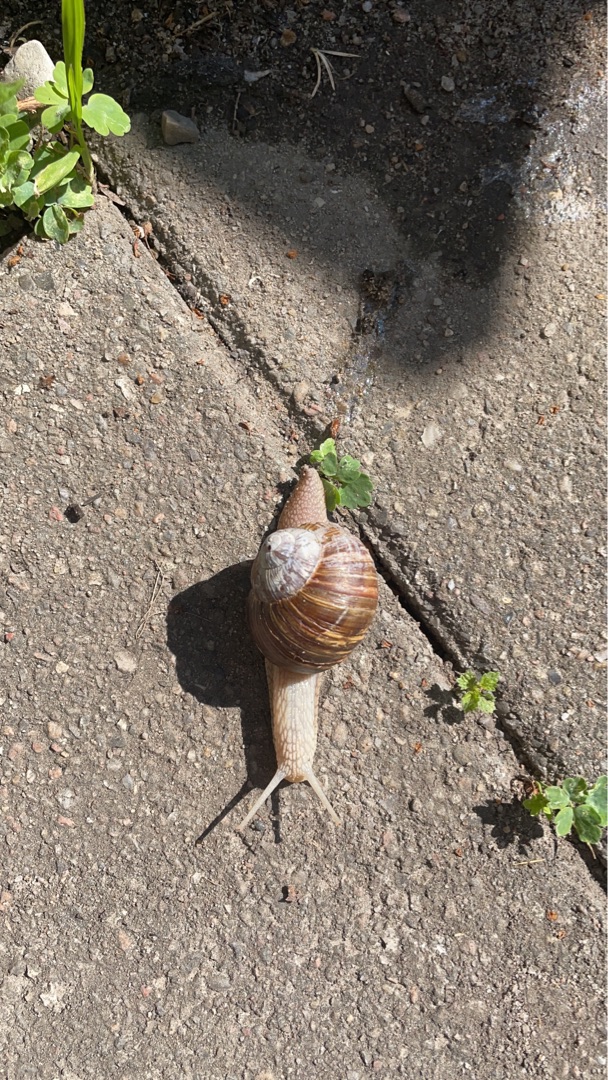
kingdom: Animalia
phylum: Mollusca
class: Gastropoda
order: Stylommatophora
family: Helicidae
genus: Helix
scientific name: Helix pomatia
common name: Vinbjergsnegl
